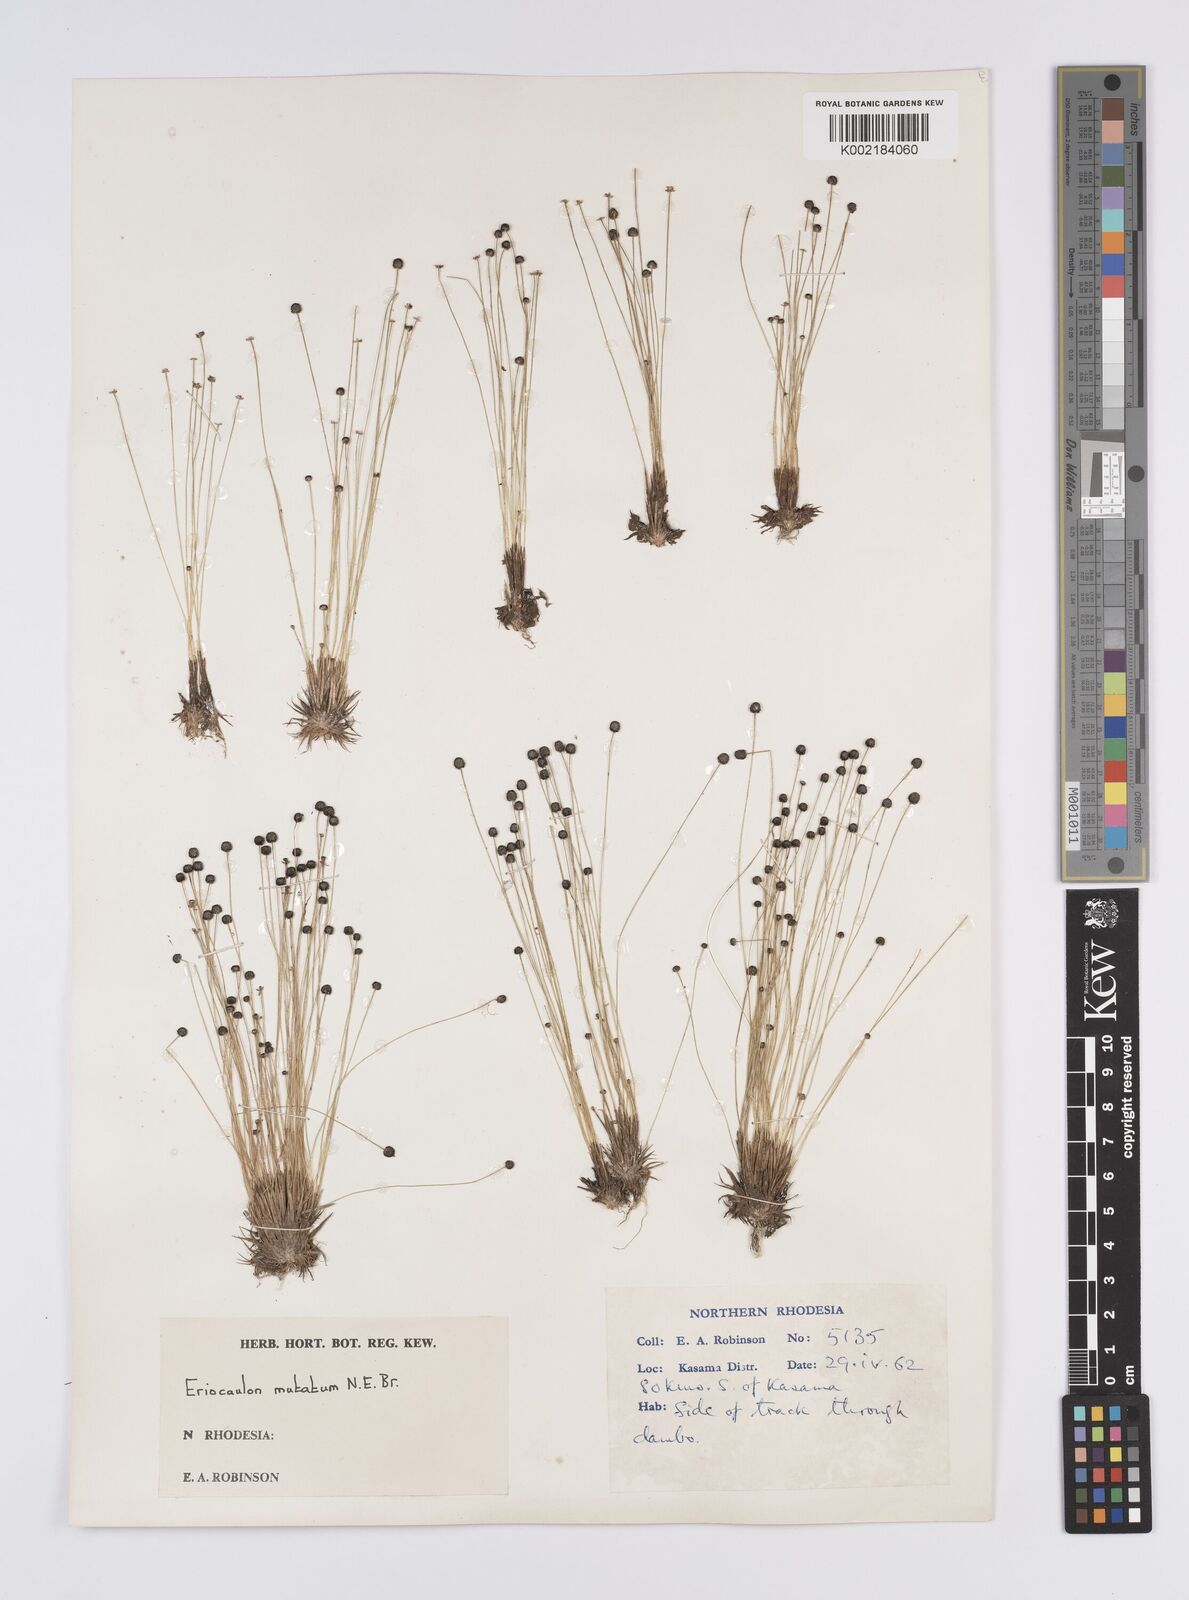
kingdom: Plantae
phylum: Tracheophyta
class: Liliopsida
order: Poales
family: Eriocaulaceae
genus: Eriocaulon
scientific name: Eriocaulon mutatum
